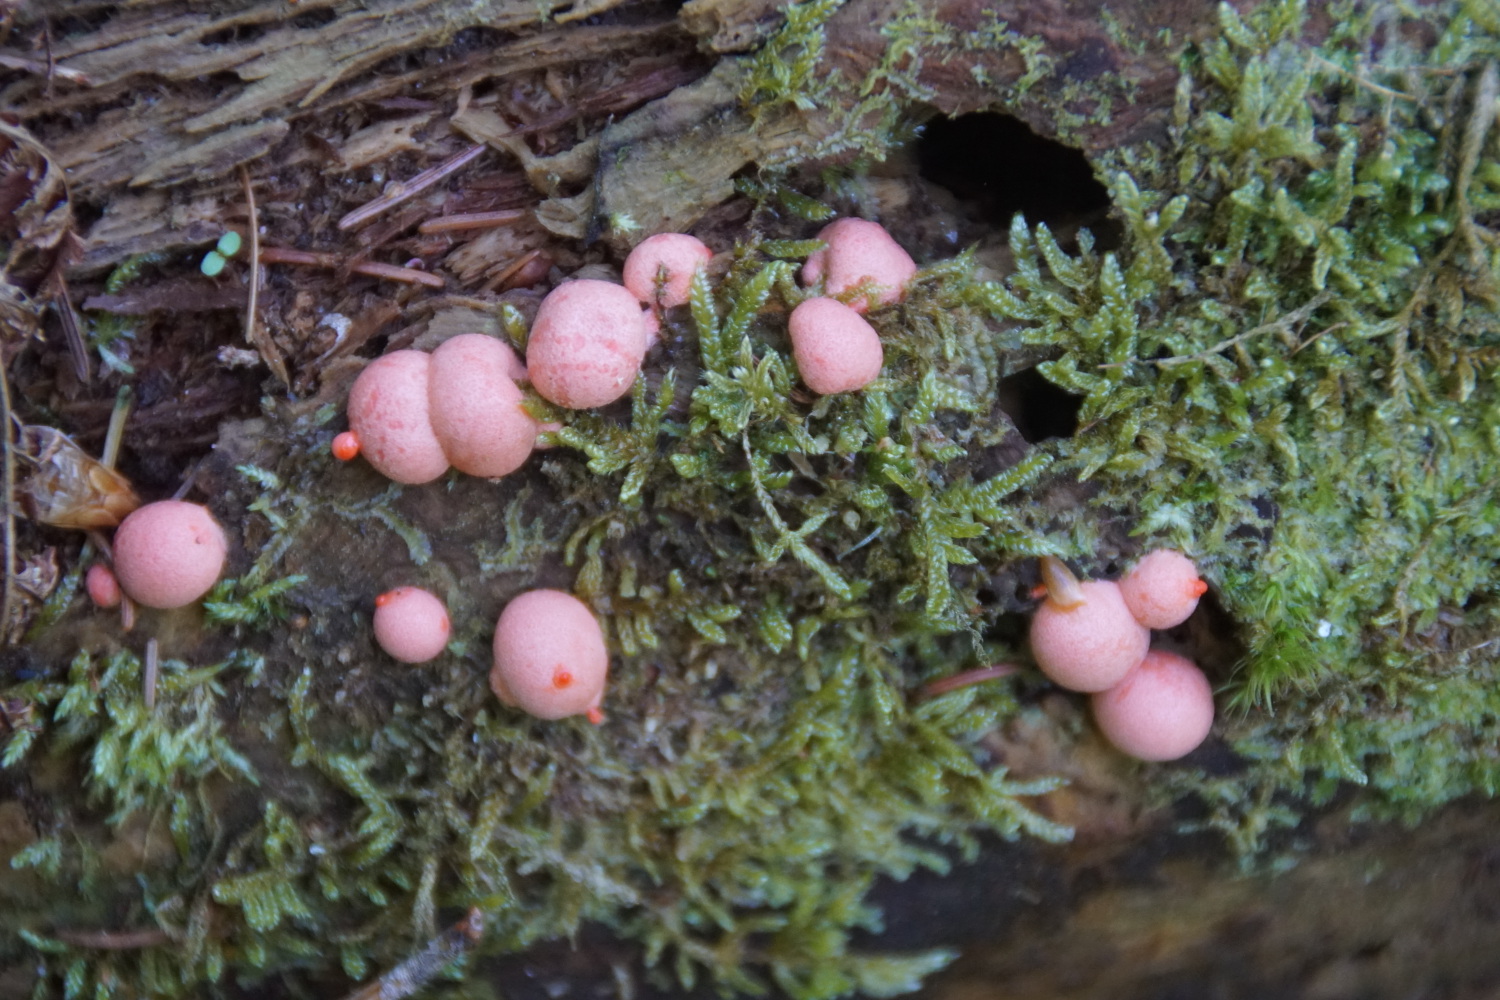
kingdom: Protozoa
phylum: Mycetozoa
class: Myxomycetes
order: Cribrariales
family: Tubiferaceae
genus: Lycogala
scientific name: Lycogala epidendrum
